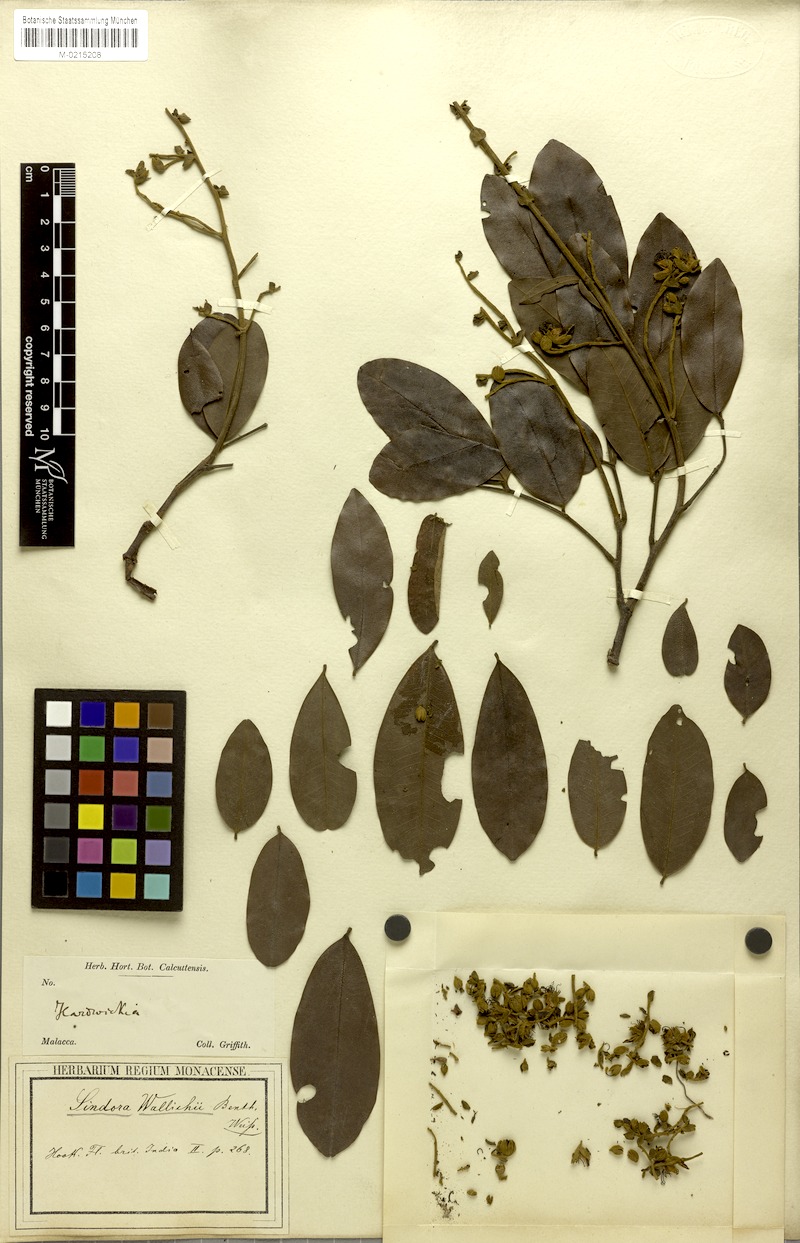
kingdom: Plantae
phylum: Tracheophyta
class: Magnoliopsida
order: Fabales
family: Fabaceae
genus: Sindora
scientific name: Sindora wallichii
